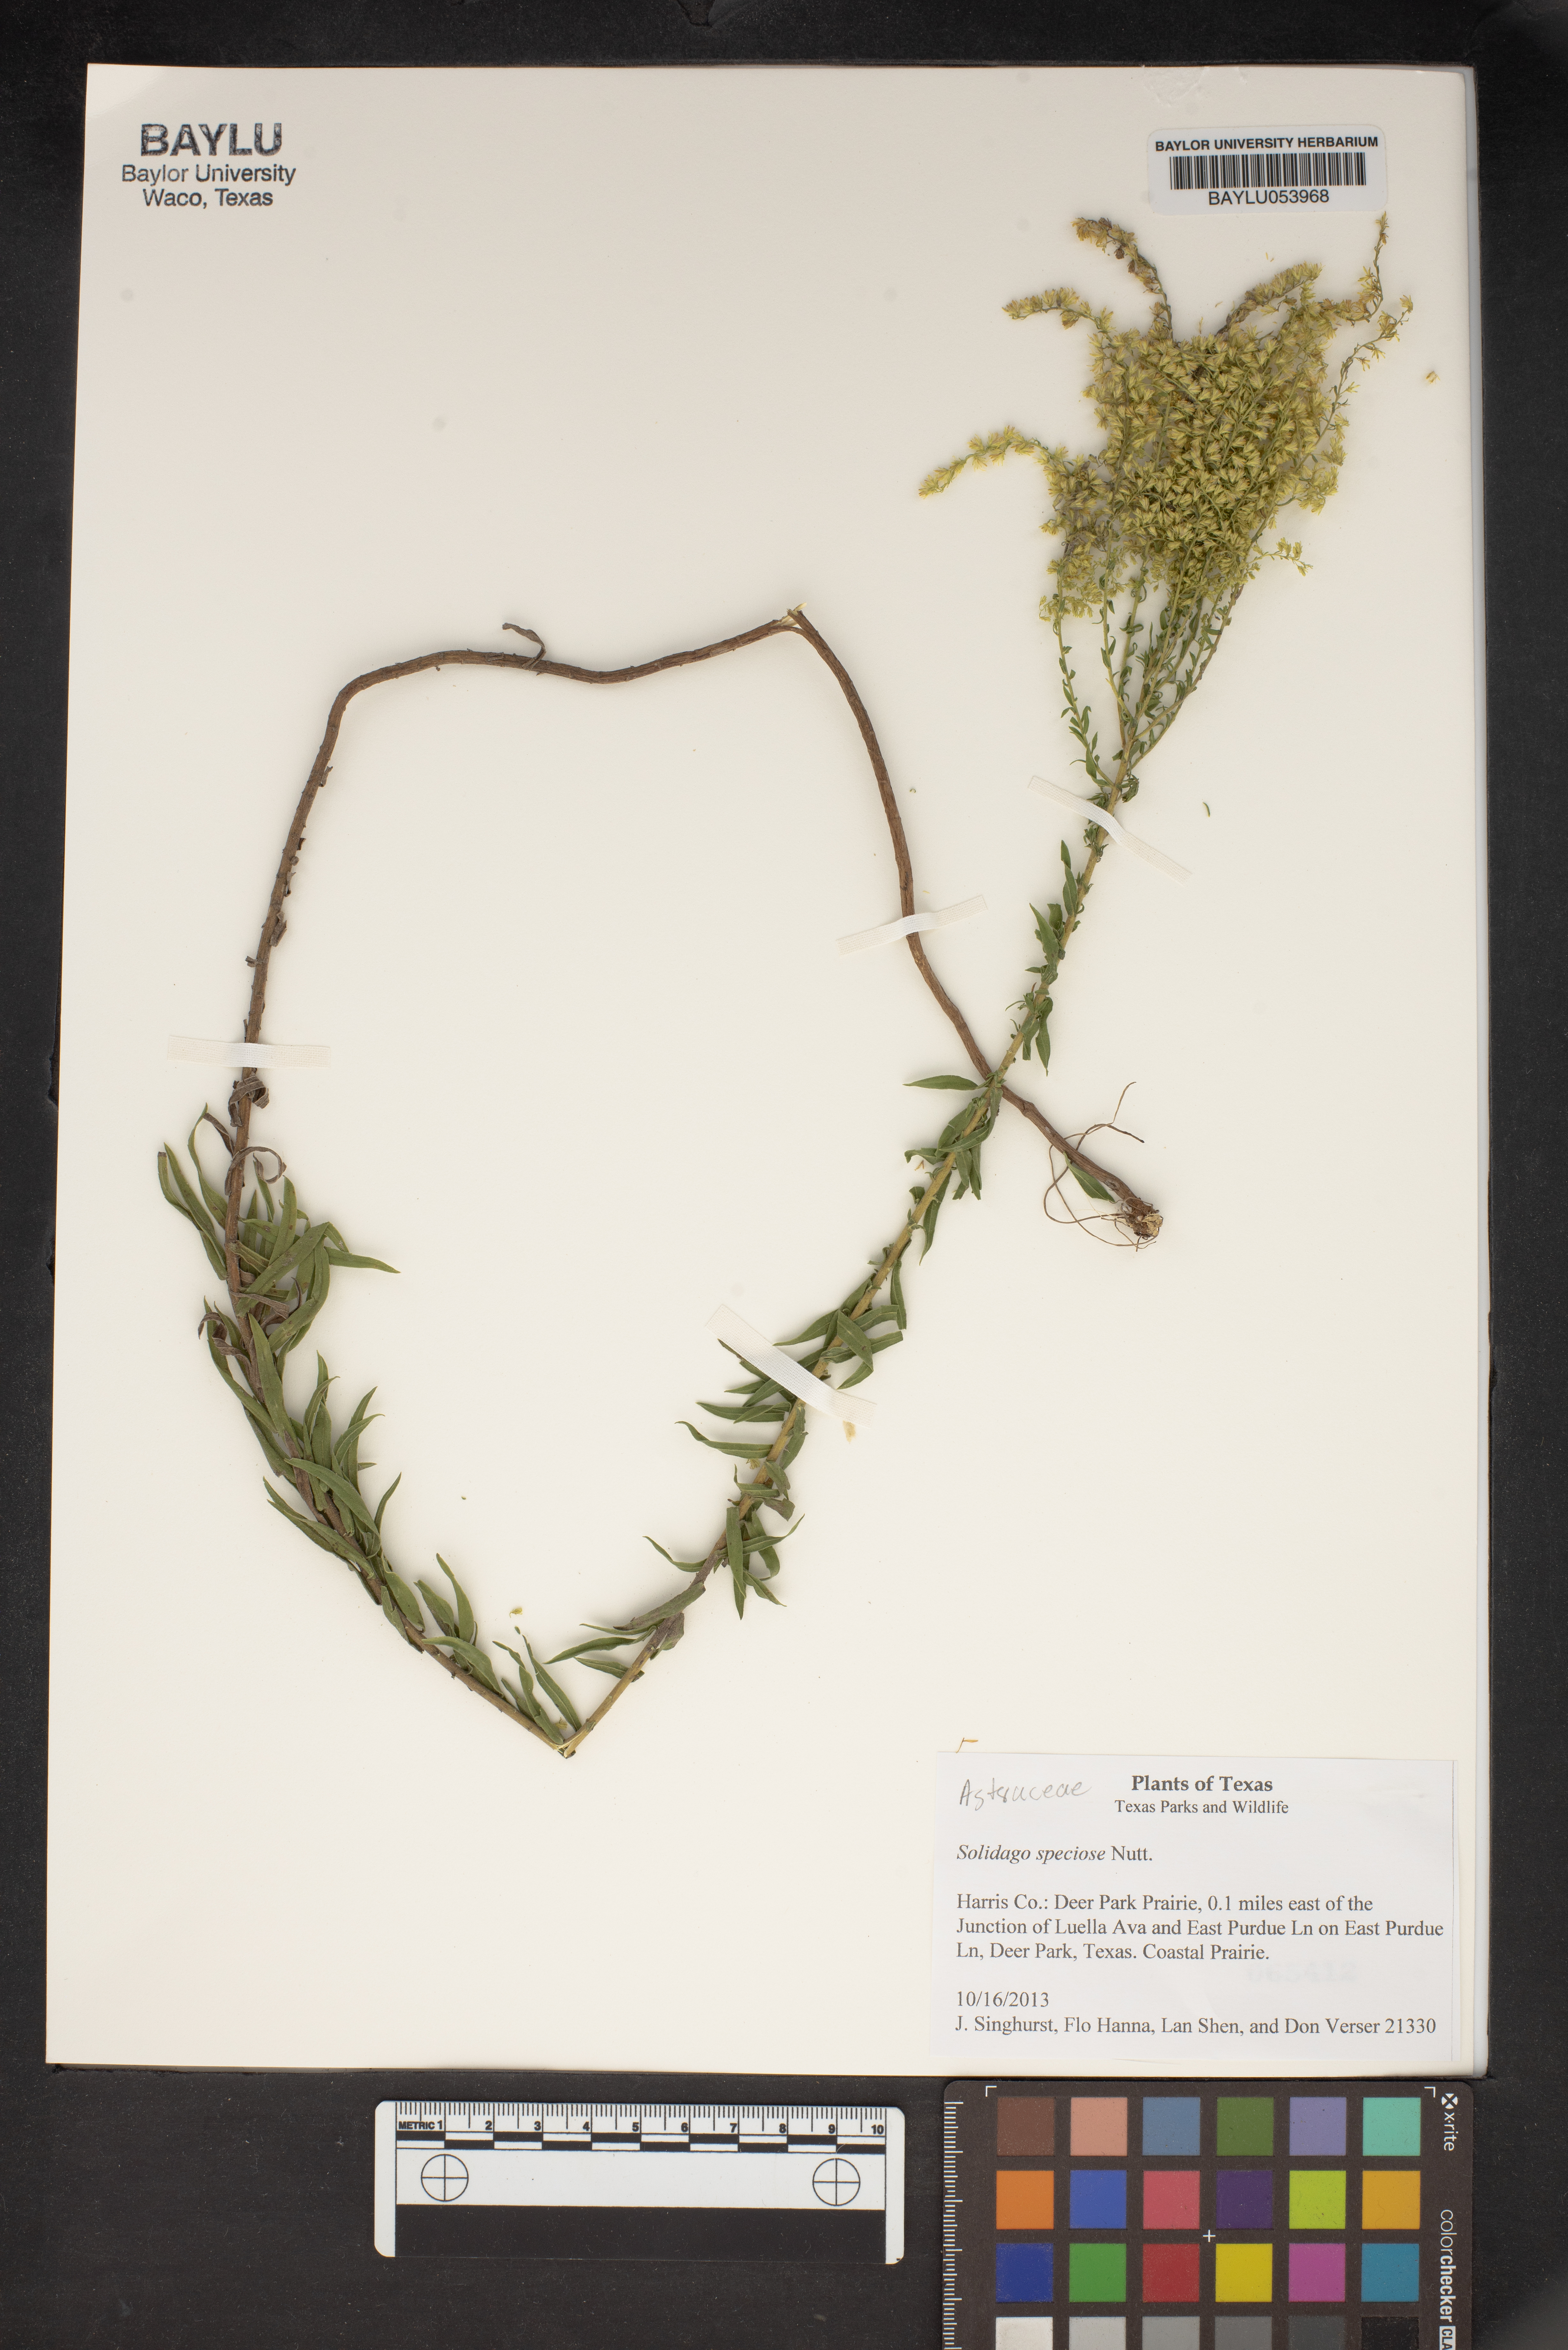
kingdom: Plantae
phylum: Tracheophyta
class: Magnoliopsida
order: Asterales
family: Asteraceae
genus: Solidago
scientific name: Solidago speciosa
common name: Showy goldenrod
